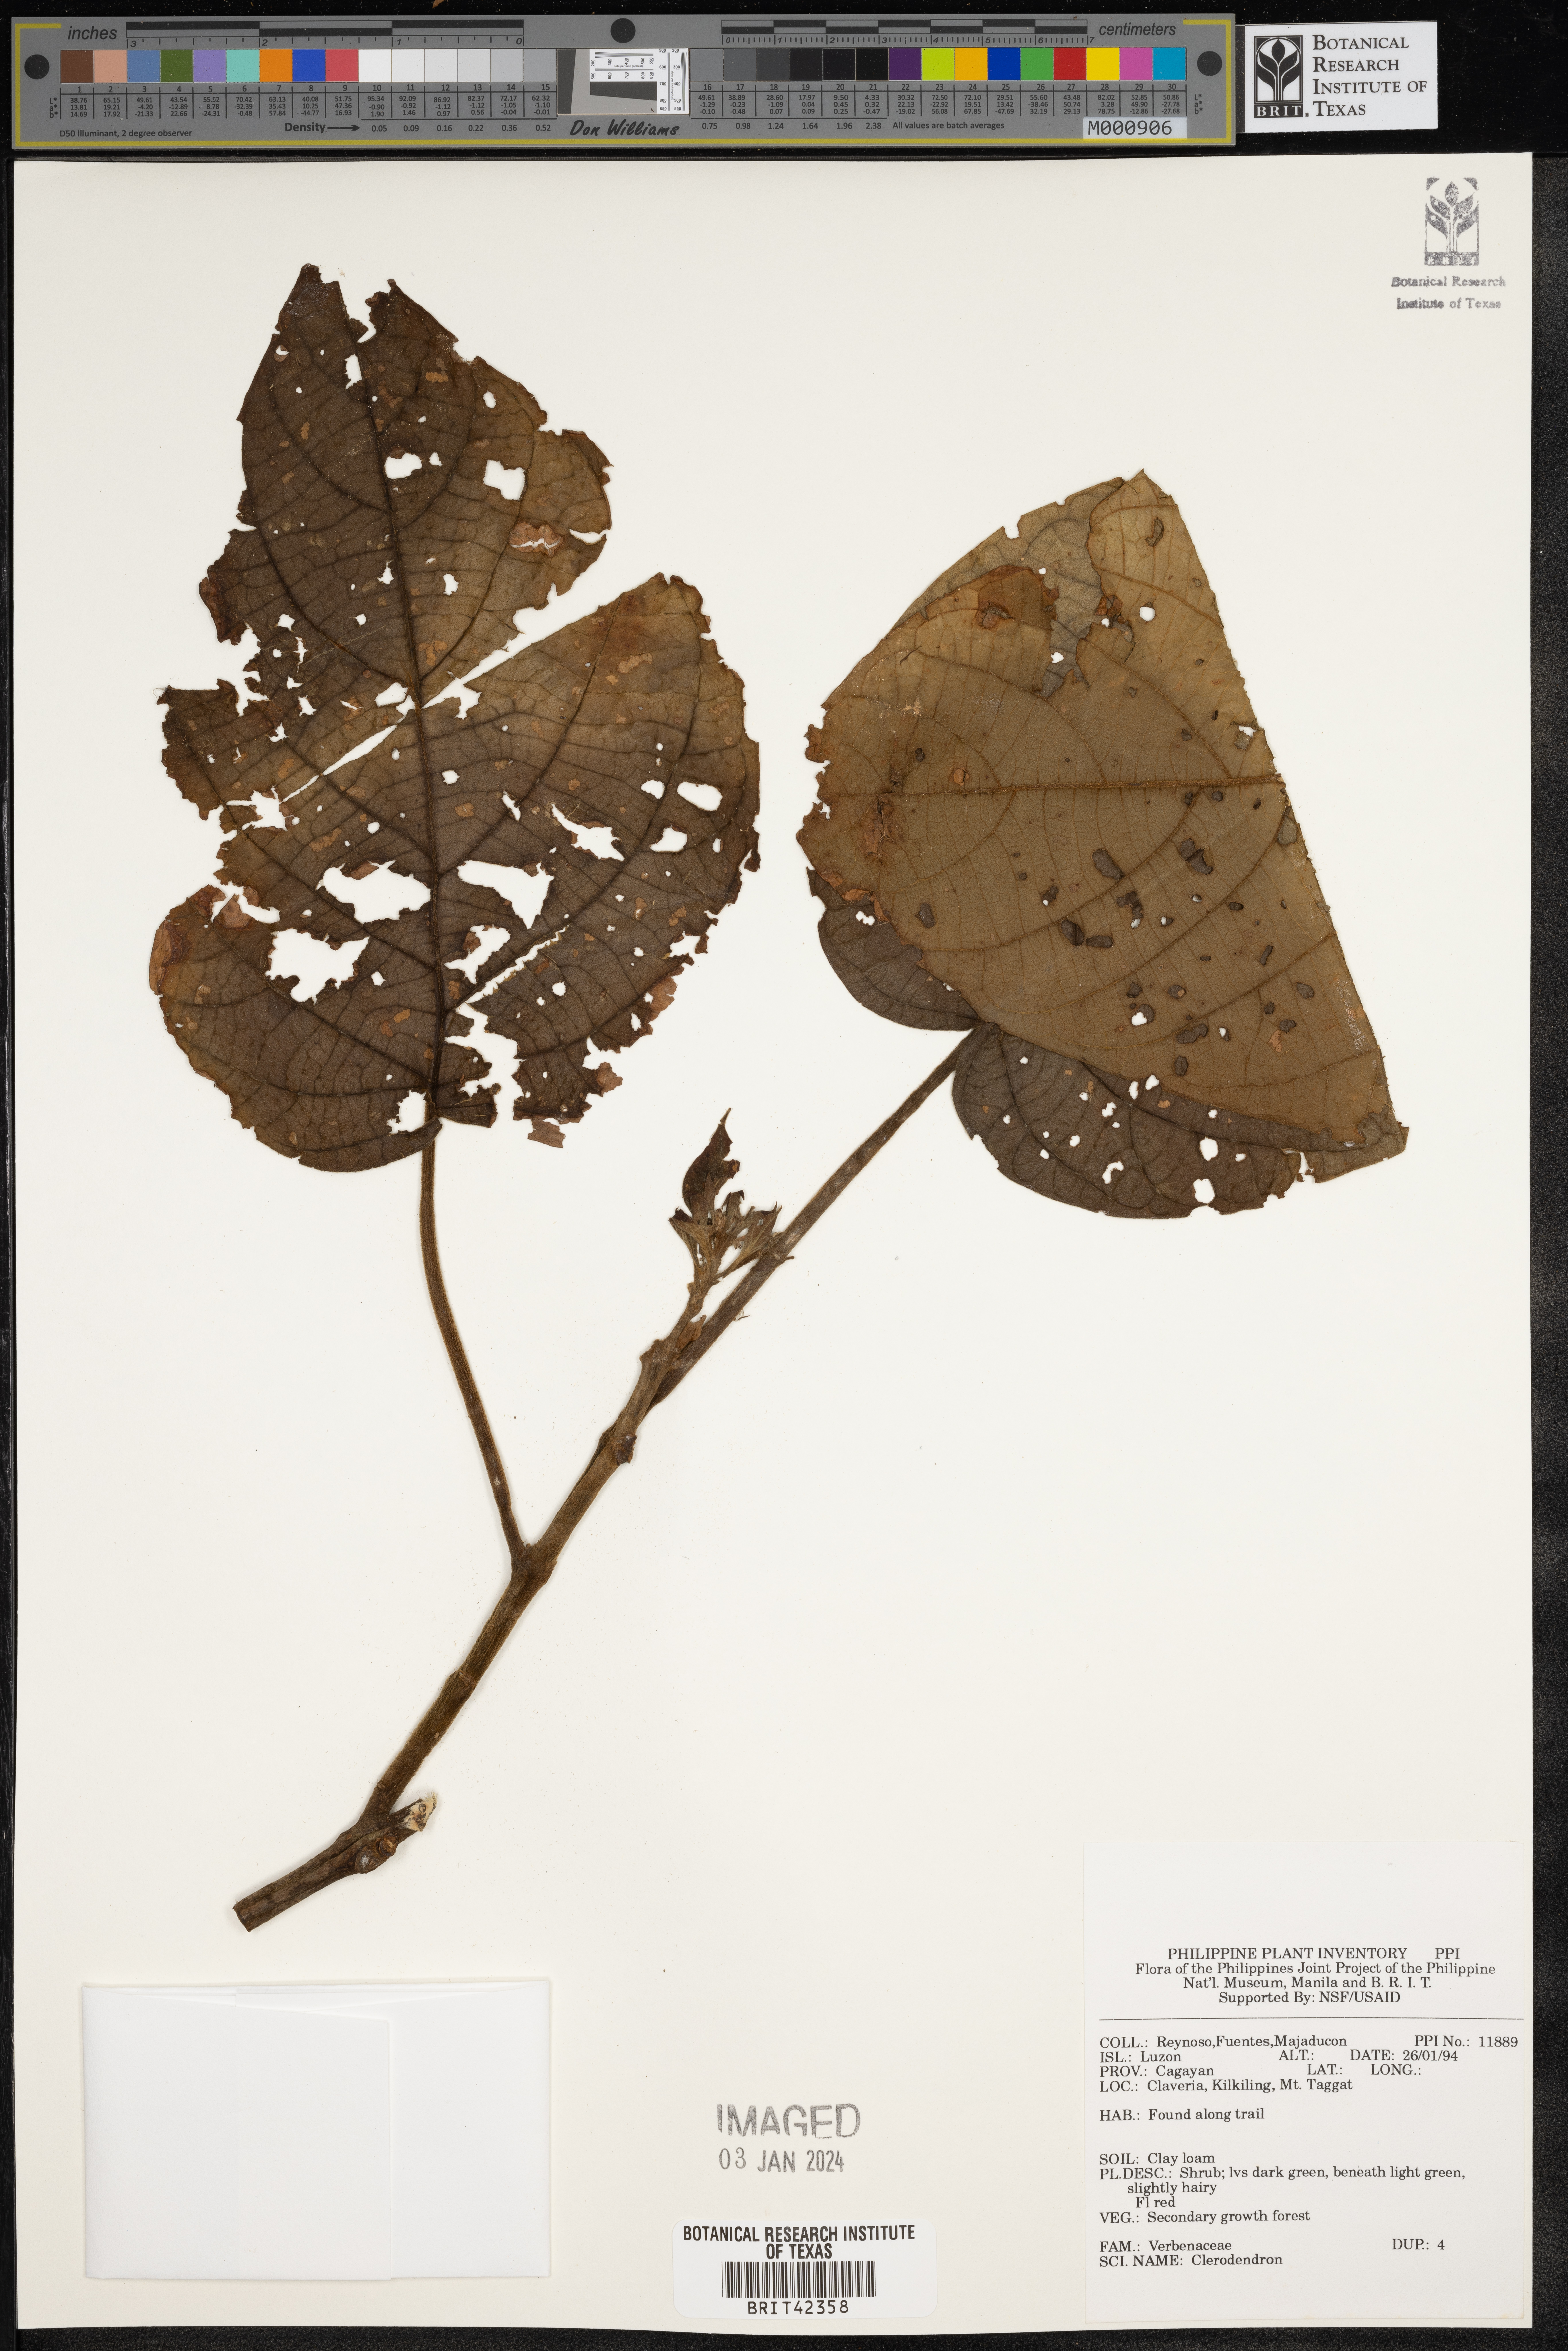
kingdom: Plantae
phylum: Tracheophyta
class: Magnoliopsida
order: Lamiales
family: Lamiaceae
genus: Clerodendrum
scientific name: Clerodendrum
